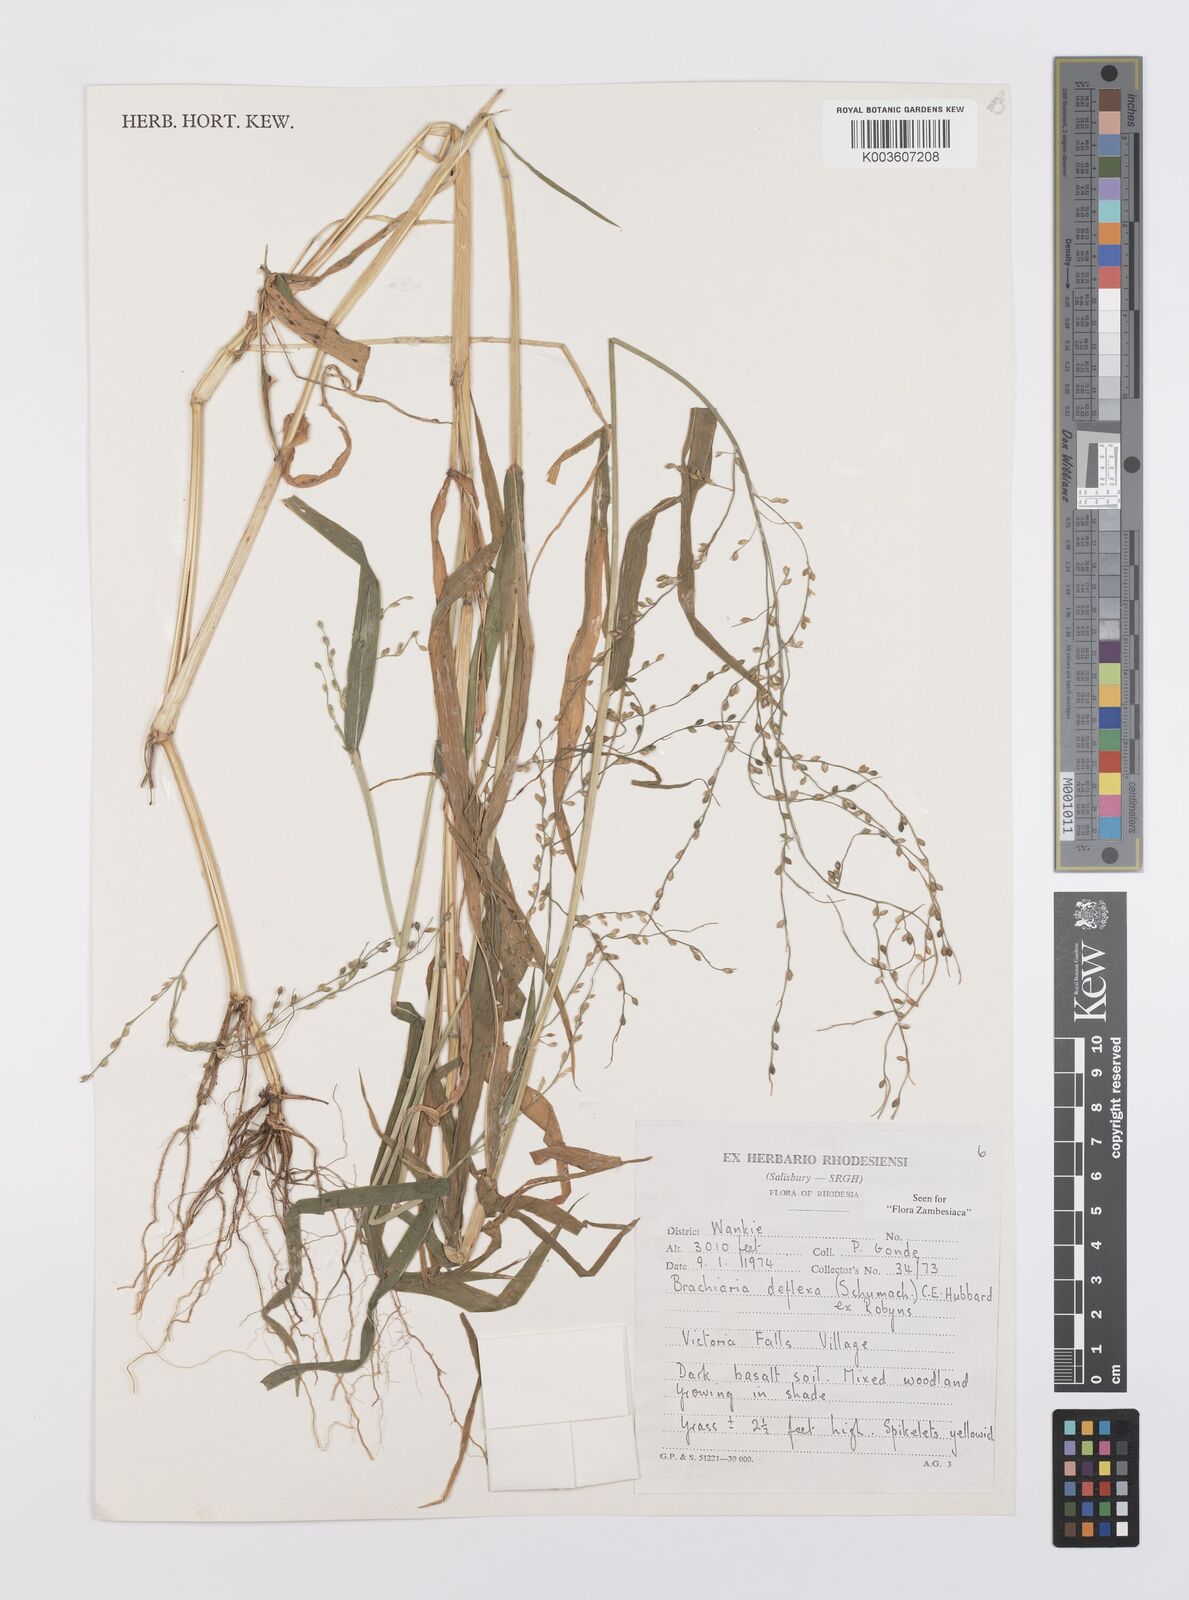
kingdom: Plantae
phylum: Tracheophyta
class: Liliopsida
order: Poales
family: Poaceae
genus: Urochloa
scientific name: Urochloa deflexa
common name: Guinea millet
